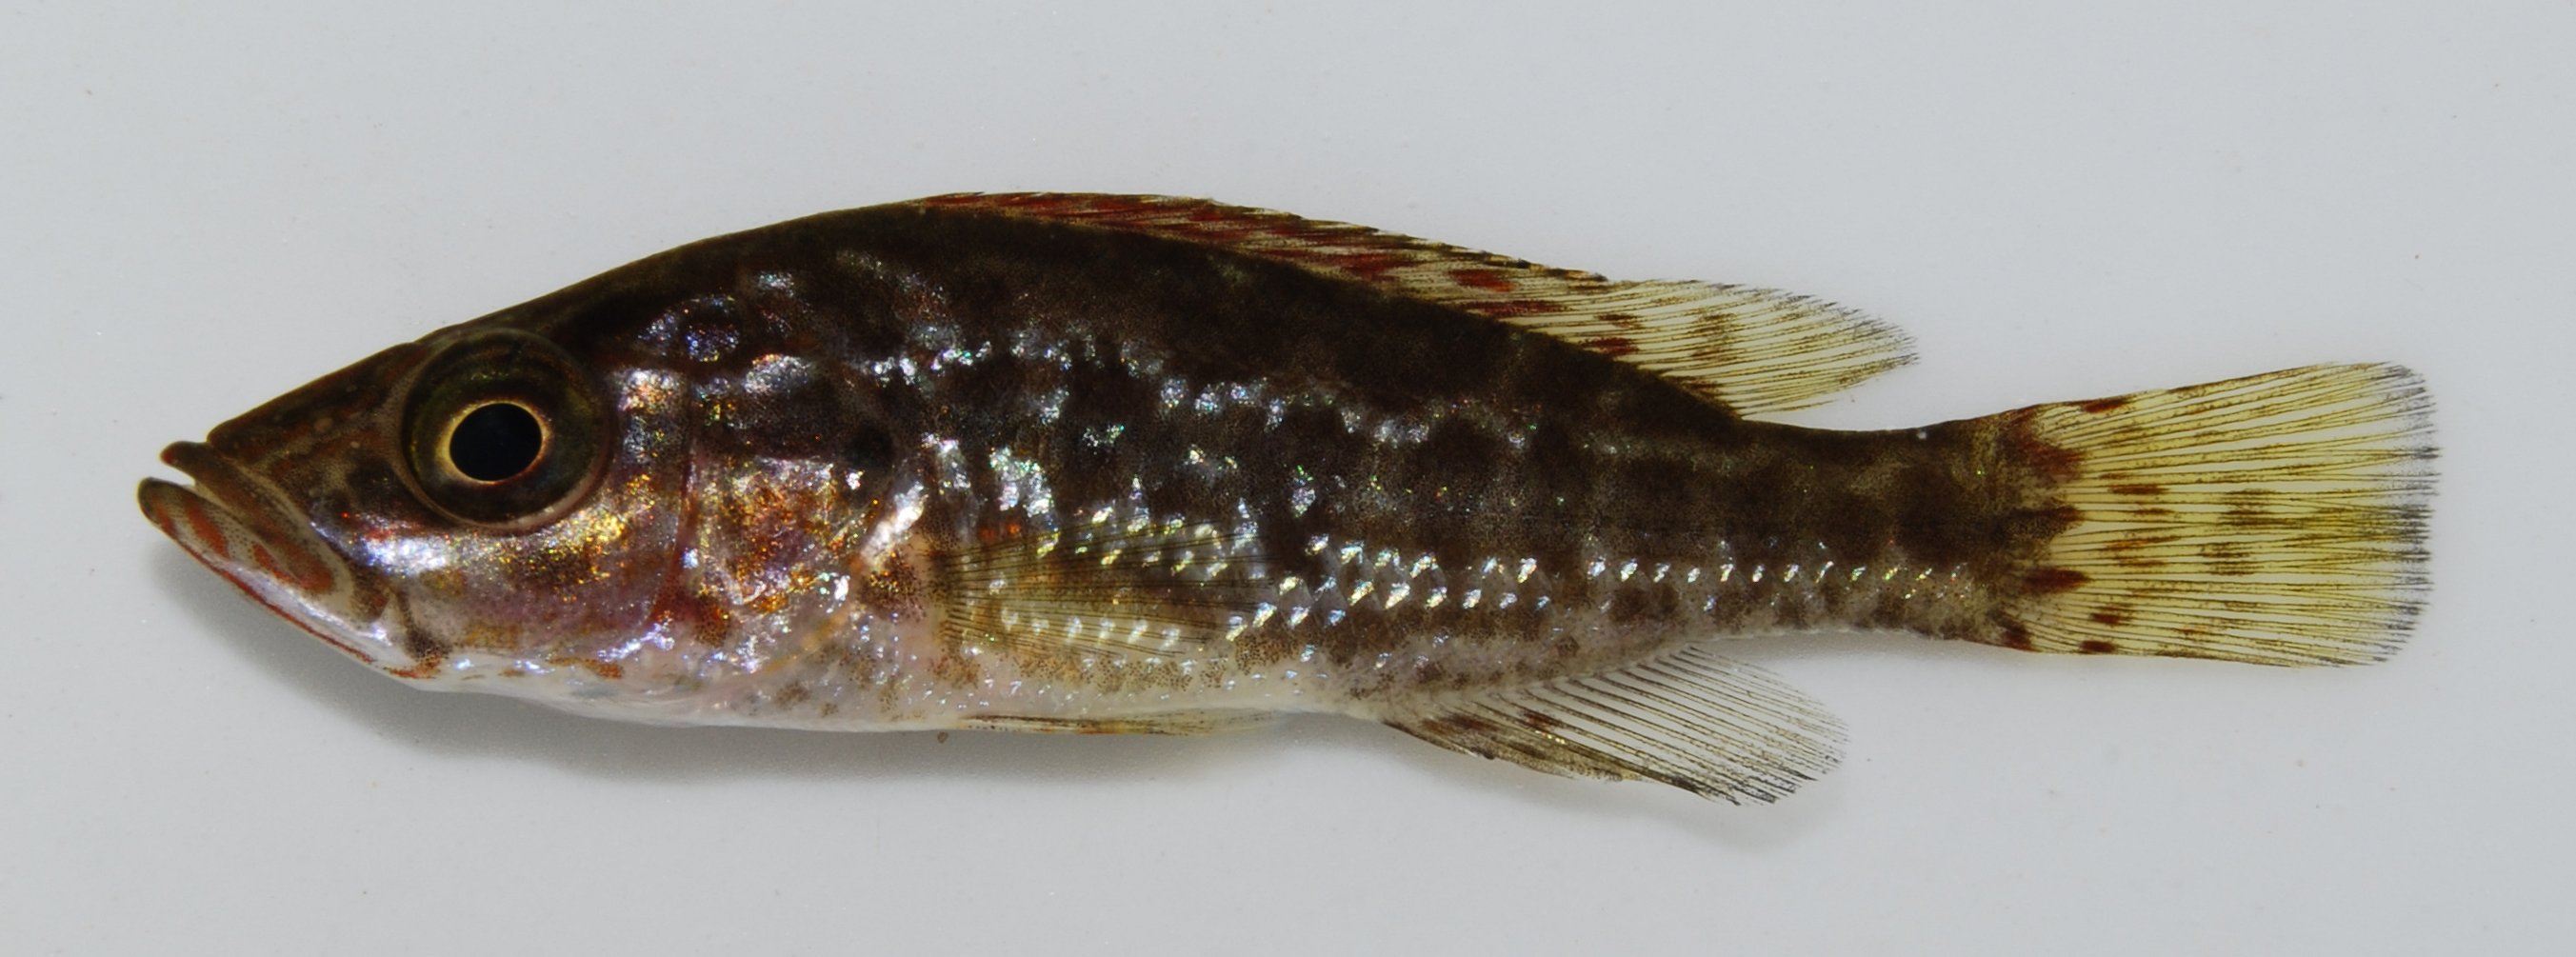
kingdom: Animalia
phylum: Chordata
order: Perciformes
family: Cichlidae
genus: Serranochromis
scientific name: Serranochromis angusticeps
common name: Thinface largemouth
